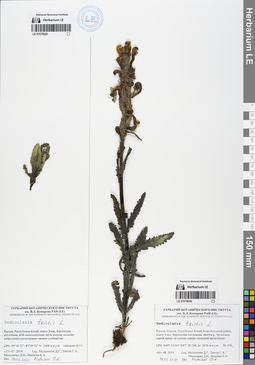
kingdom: Plantae
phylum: Tracheophyta
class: Magnoliopsida
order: Lamiales
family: Orobanchaceae
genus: Pedicularis
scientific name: Pedicularis tristis
